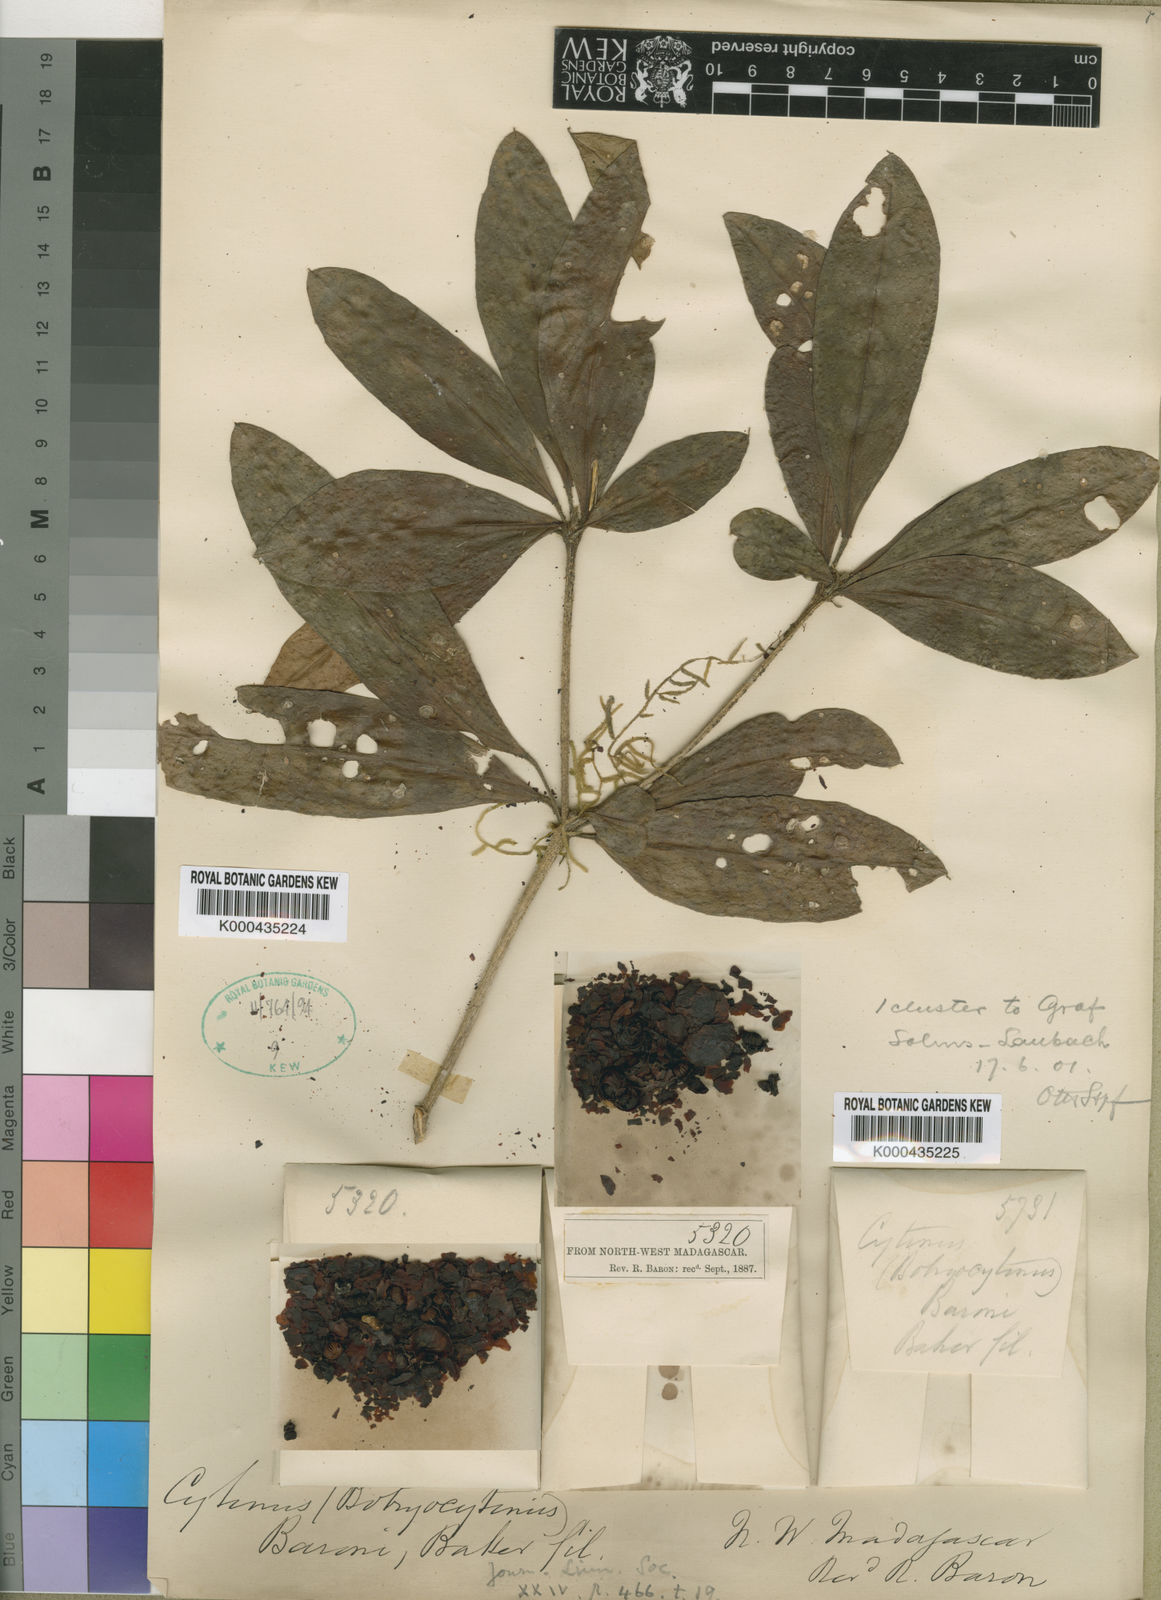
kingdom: Plantae
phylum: Tracheophyta
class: Magnoliopsida
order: Malvales
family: Cytinaceae
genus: Cytinus
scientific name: Cytinus baronii
